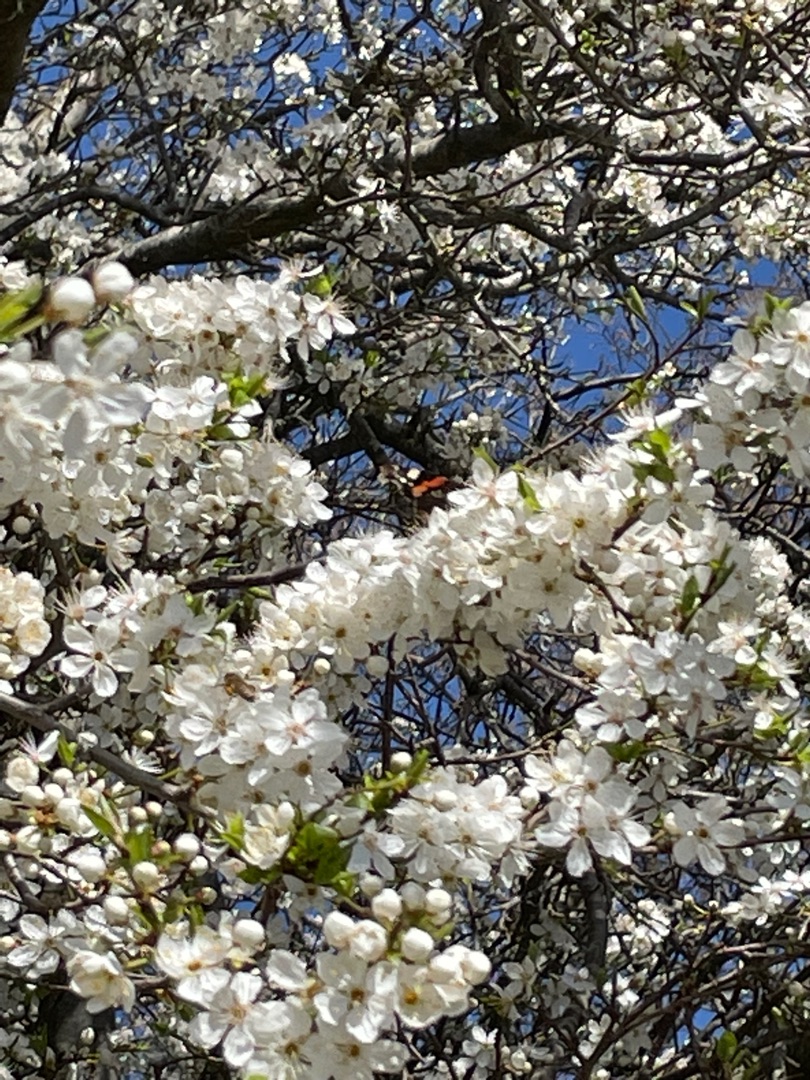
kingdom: Animalia
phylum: Arthropoda
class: Insecta
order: Lepidoptera
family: Nymphalidae
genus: Vanessa
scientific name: Vanessa atalanta
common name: Admiral
